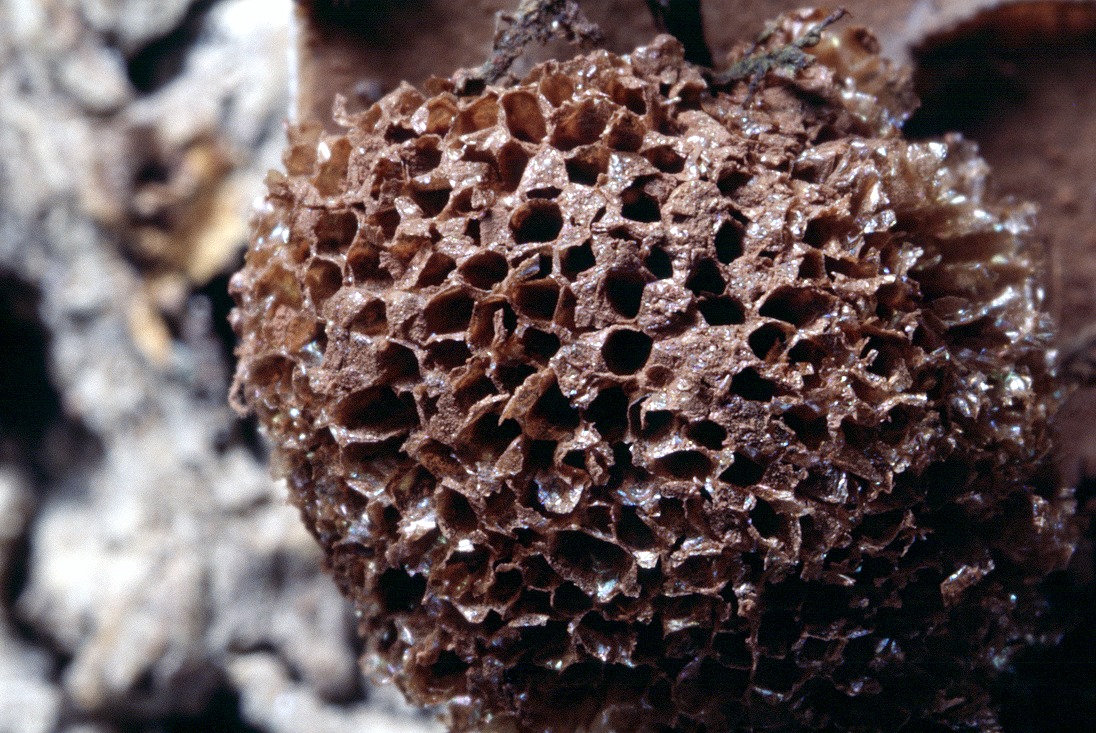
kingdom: Protozoa
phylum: Mycetozoa
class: Myxomycetes
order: Cribrariales
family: Tubiferaceae
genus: Tubifera
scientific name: Tubifera ferruginosa
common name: kanel-støvrør
